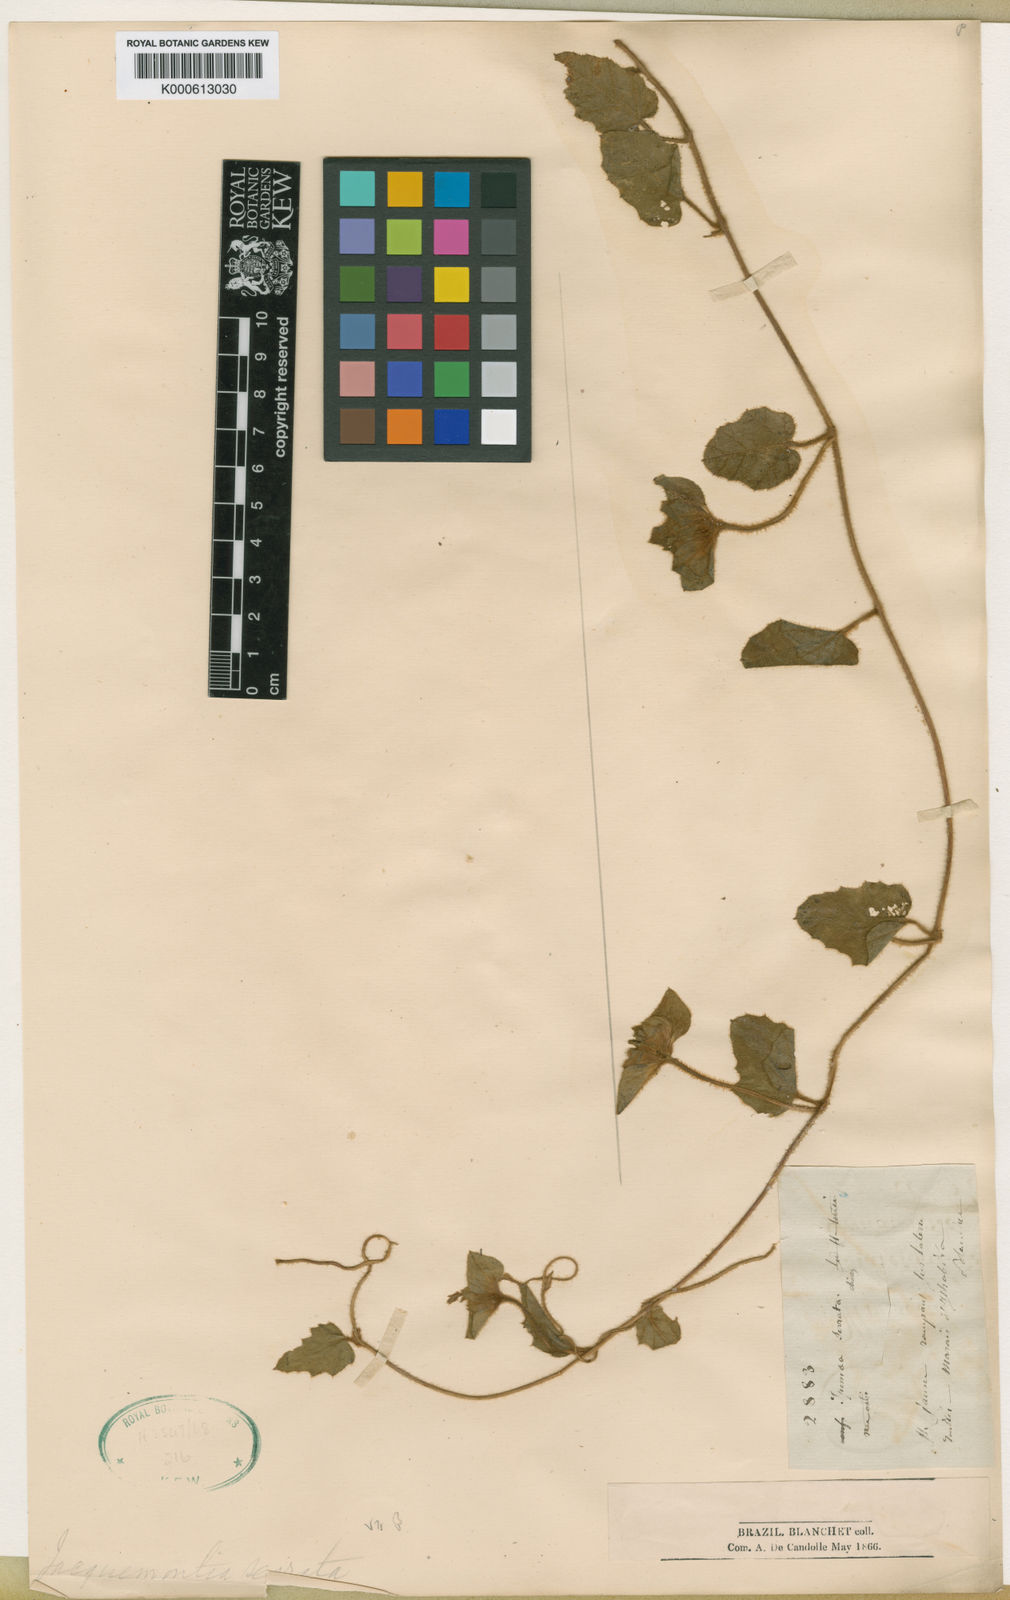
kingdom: Plantae
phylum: Tracheophyta
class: Magnoliopsida
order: Solanales
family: Convolvulaceae
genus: Daustinia
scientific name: Daustinia montana
